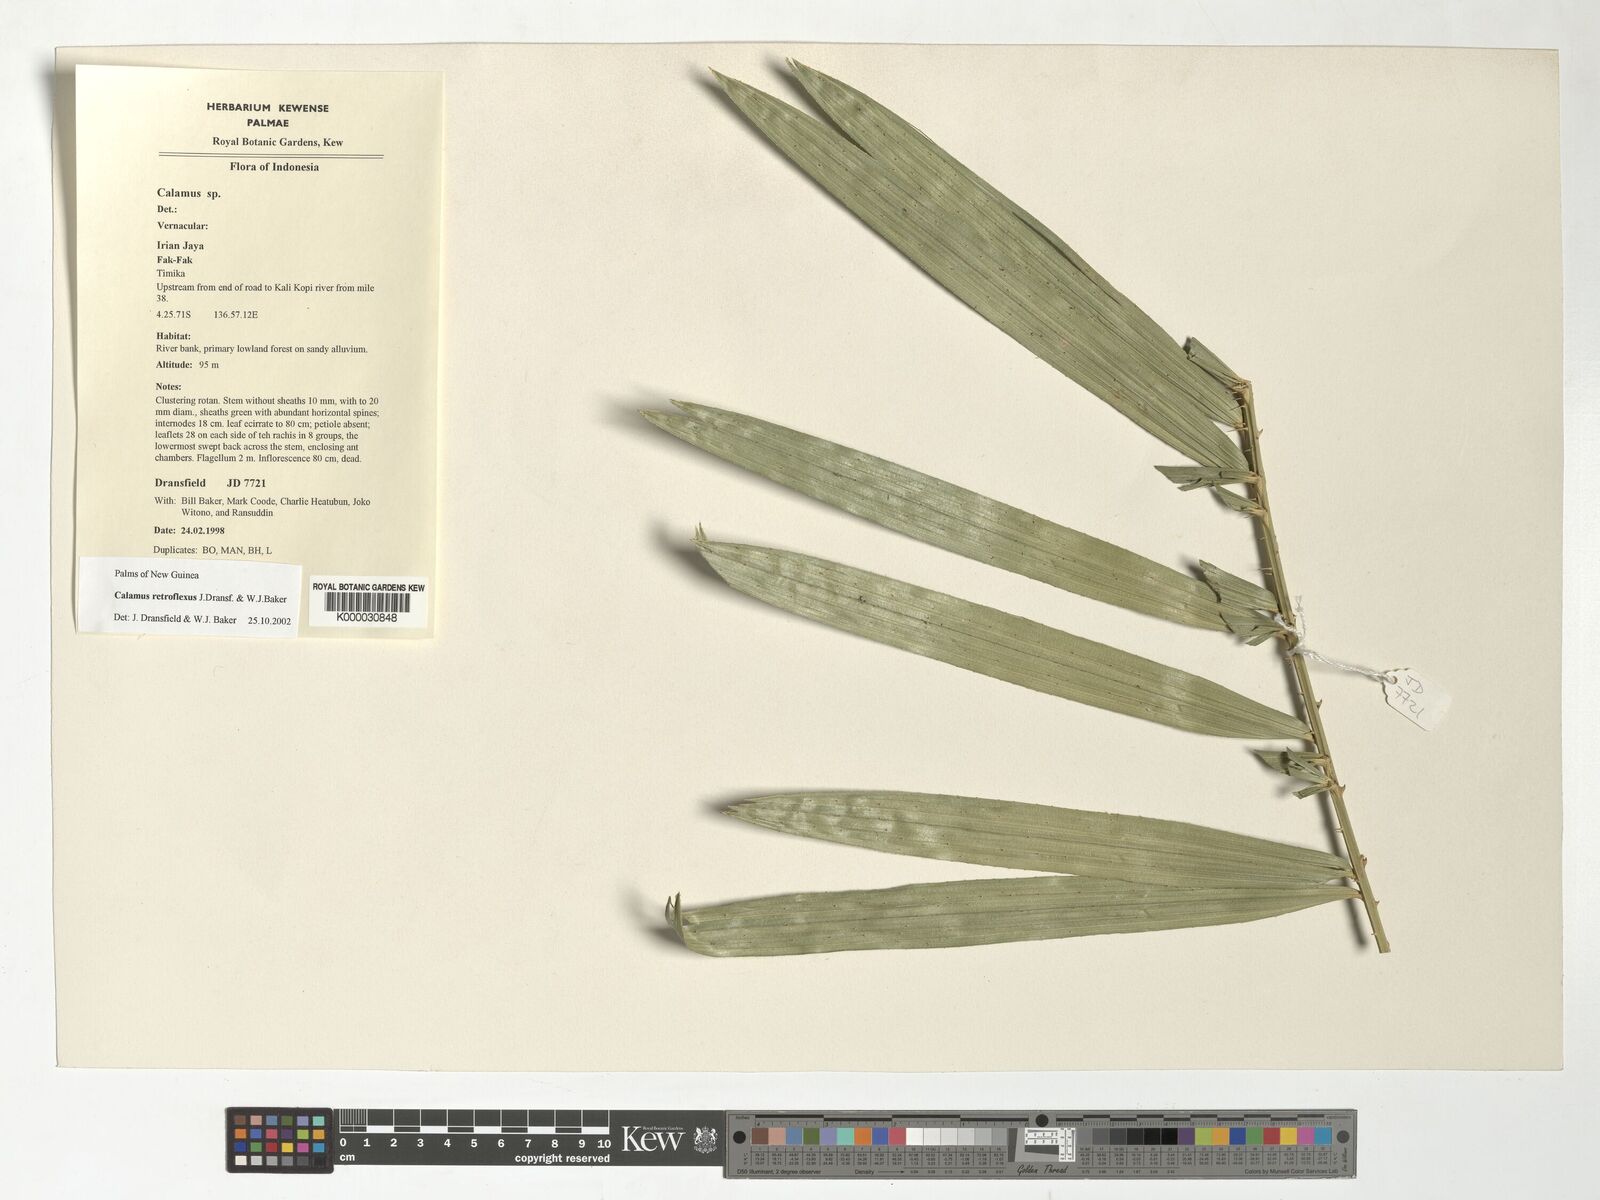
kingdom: Plantae
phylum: Tracheophyta
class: Liliopsida
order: Arecales
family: Arecaceae
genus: Calamus
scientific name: Calamus retroflexus
